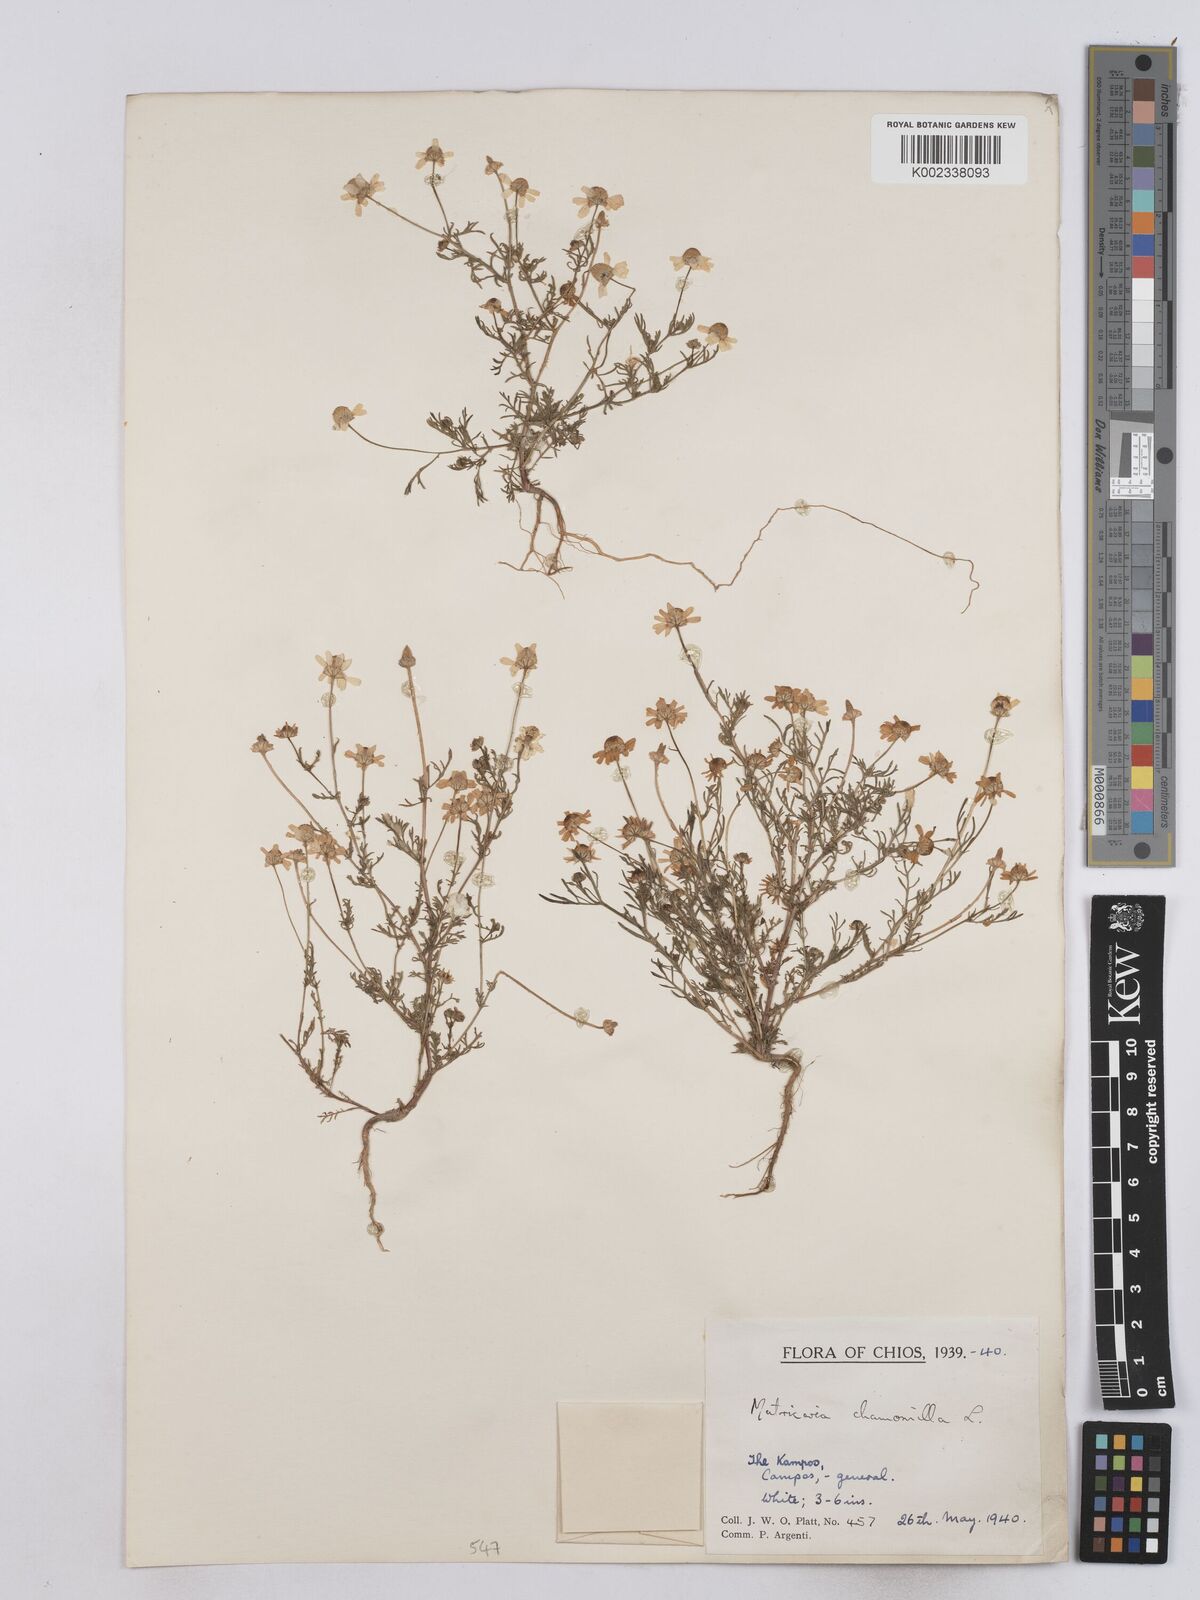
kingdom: Plantae
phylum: Tracheophyta
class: Magnoliopsida
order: Asterales
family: Asteraceae
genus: Matricaria
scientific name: Matricaria chamomilla
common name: Scented mayweed
